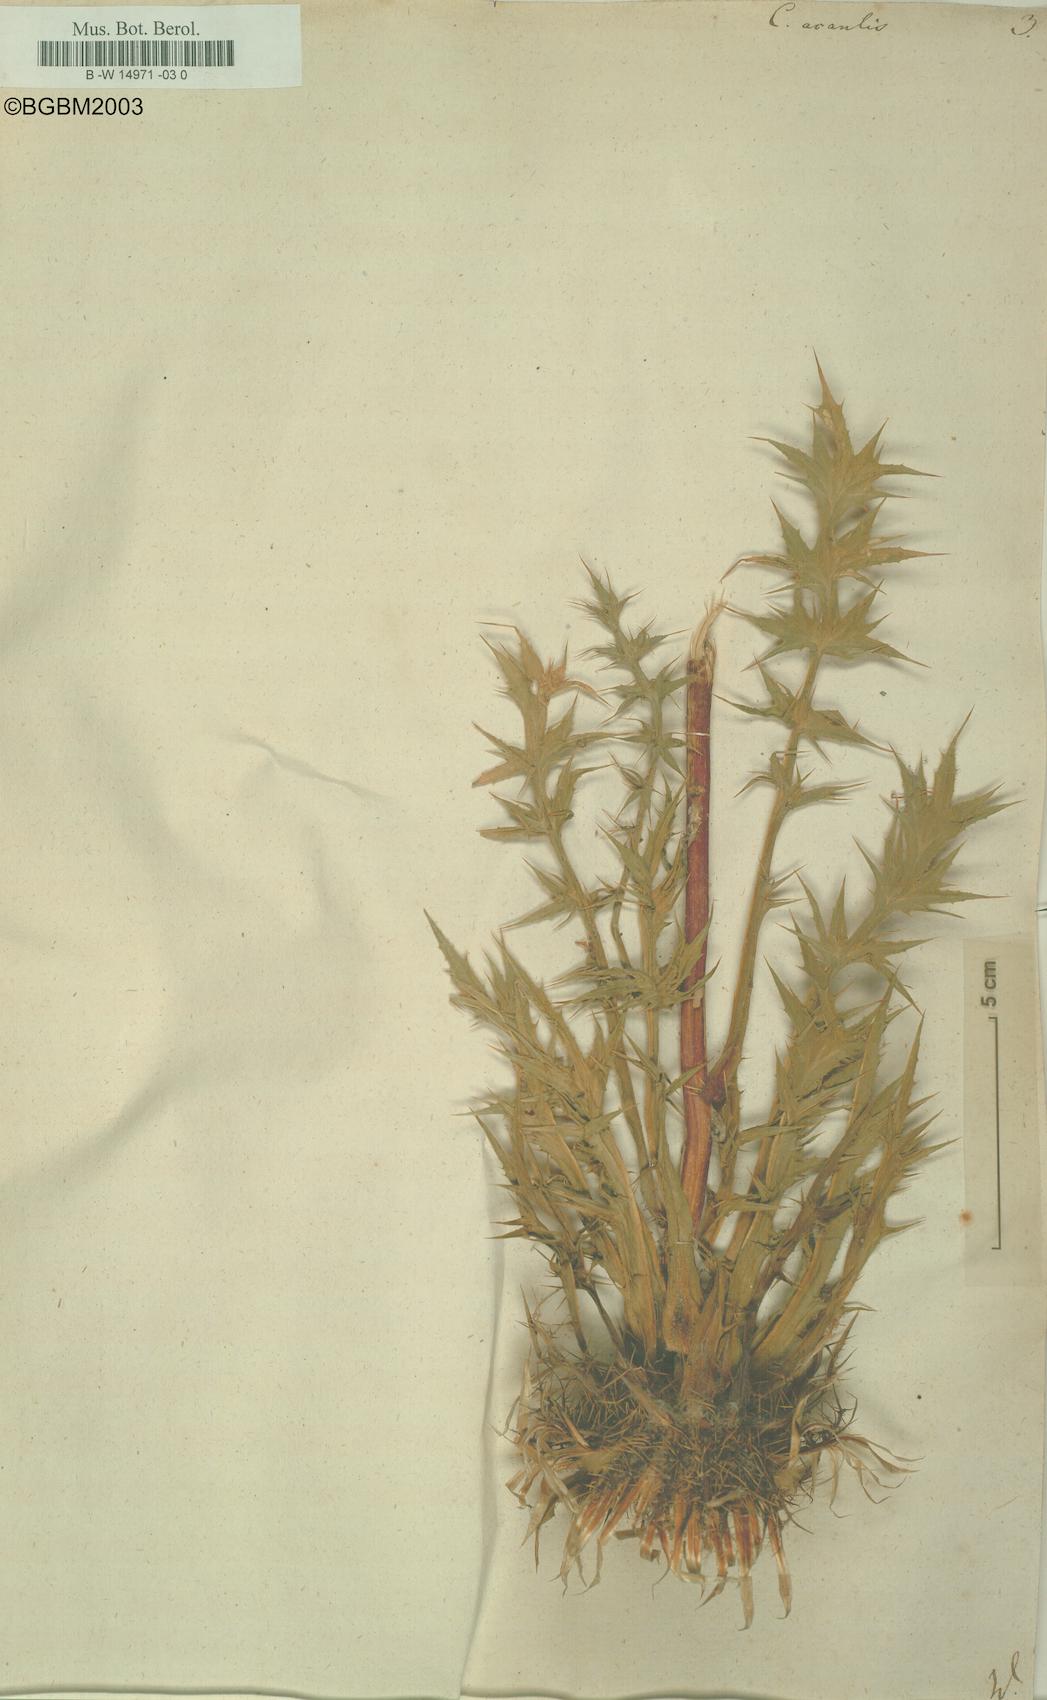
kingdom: Plantae
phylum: Tracheophyta
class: Magnoliopsida
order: Asterales
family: Asteraceae
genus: Carlina
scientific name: Carlina acaulis
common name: Stemless carline thistle
